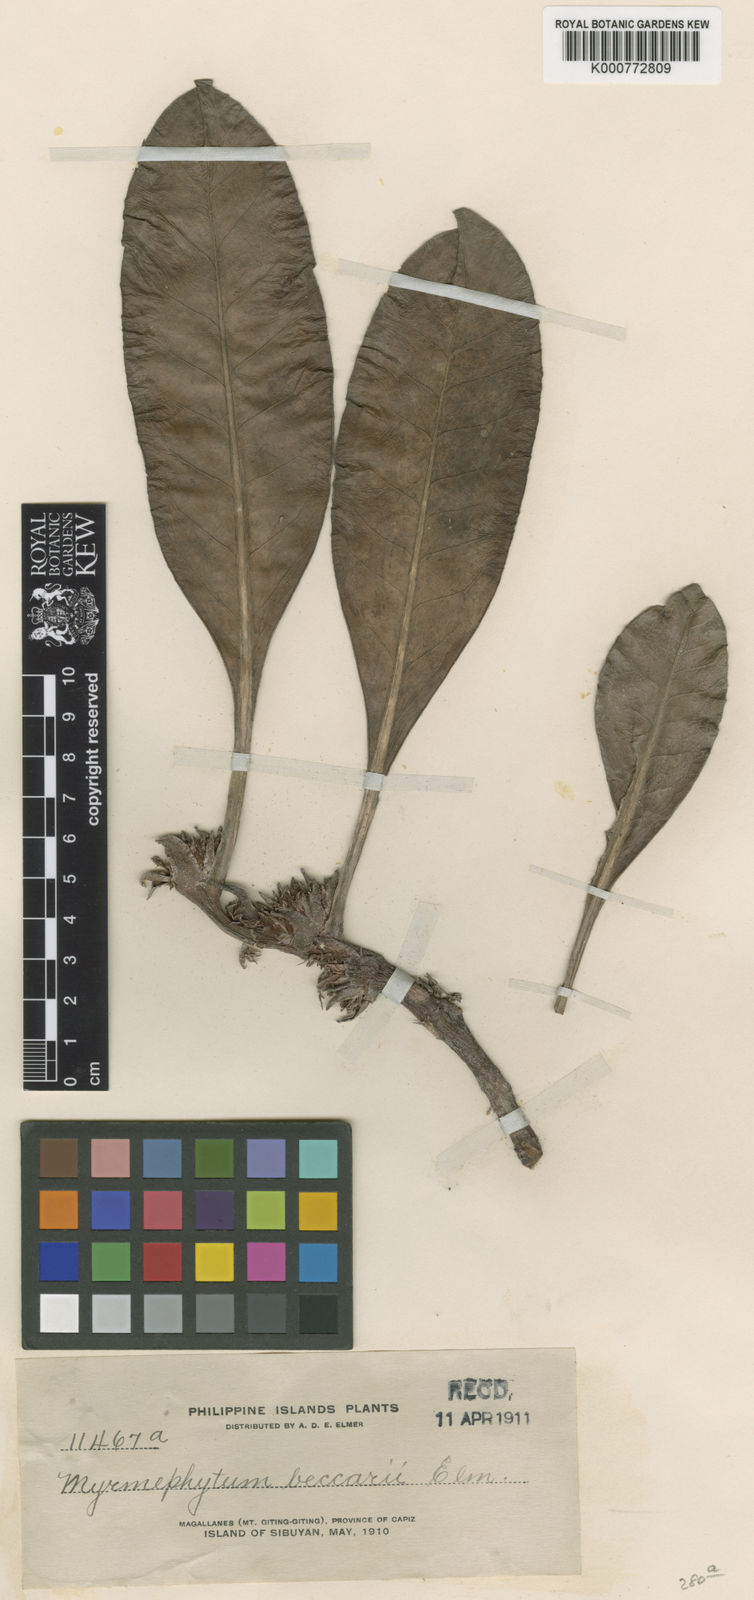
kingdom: Plantae
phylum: Tracheophyta
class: Magnoliopsida
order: Gentianales
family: Rubiaceae
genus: Myrmephytum
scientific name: Myrmephytum beccarii
